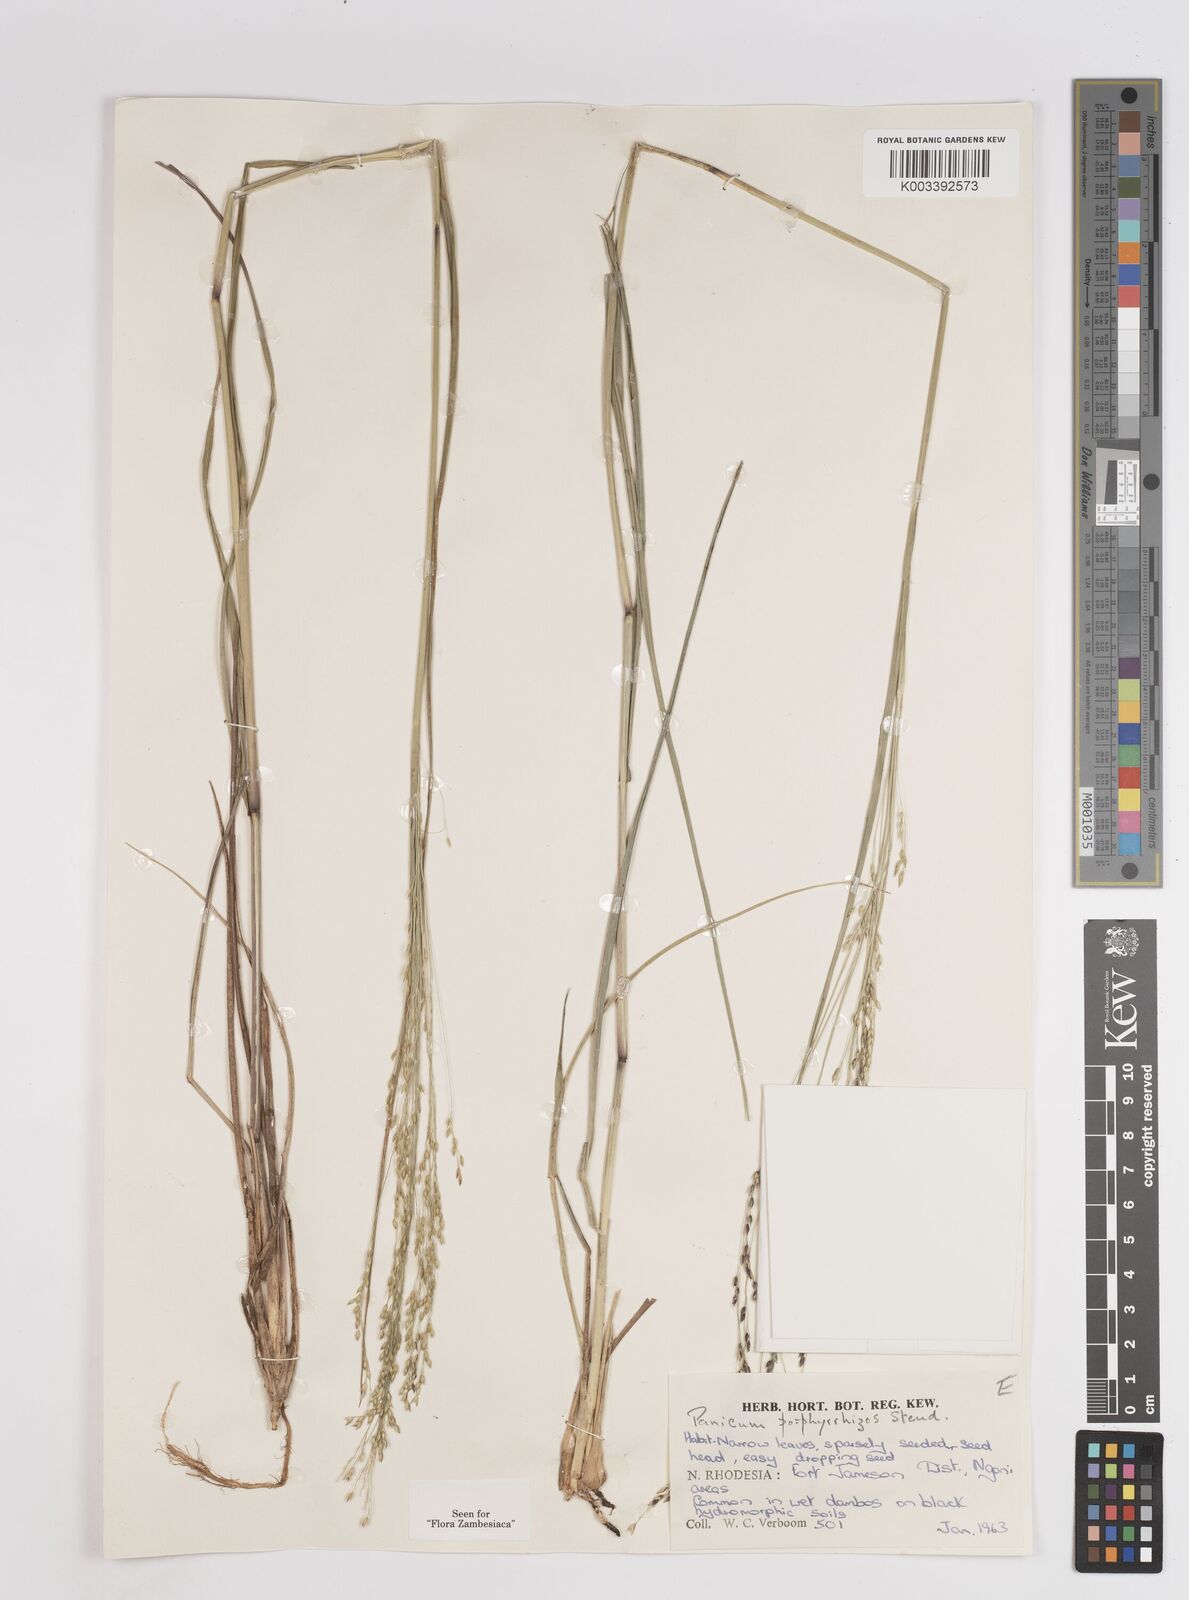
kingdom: Plantae
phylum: Tracheophyta
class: Liliopsida
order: Poales
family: Poaceae
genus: Panicum
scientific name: Panicum porphyrrhizos
